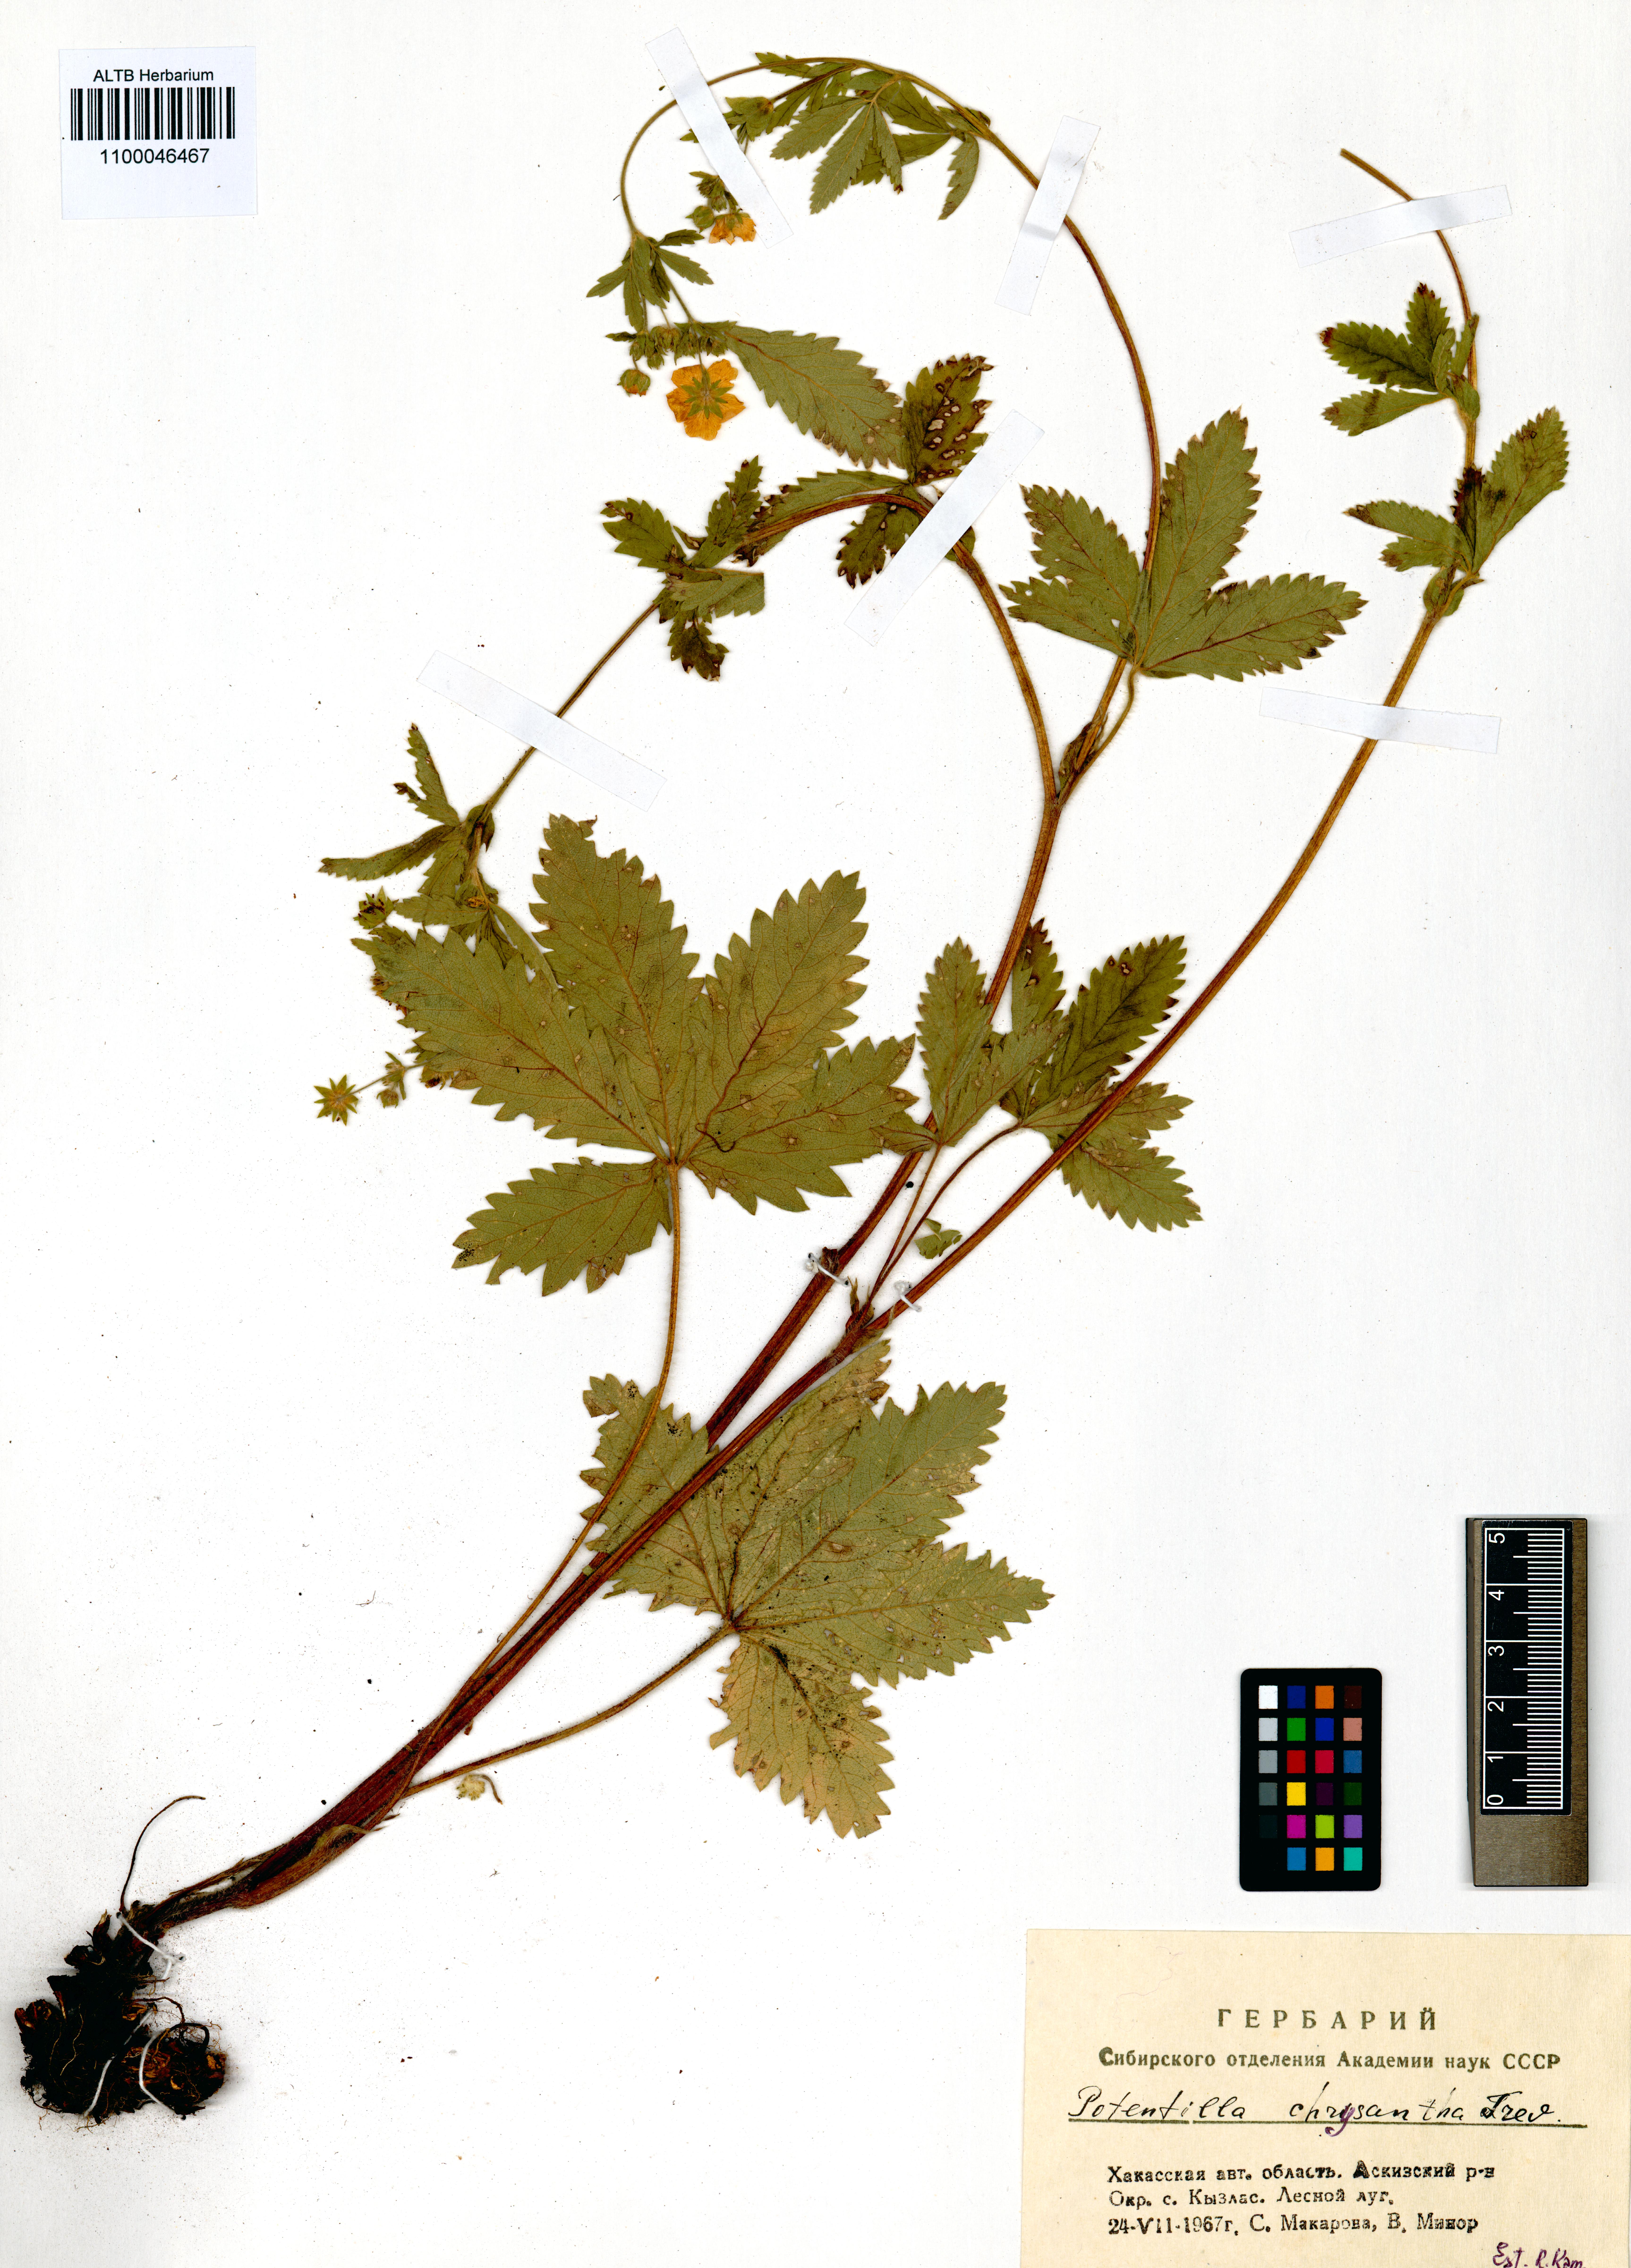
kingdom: Plantae
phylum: Tracheophyta
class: Magnoliopsida
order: Rosales
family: Rosaceae
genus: Potentilla
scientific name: Potentilla chrysantha
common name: Thuringian cinquefoil
